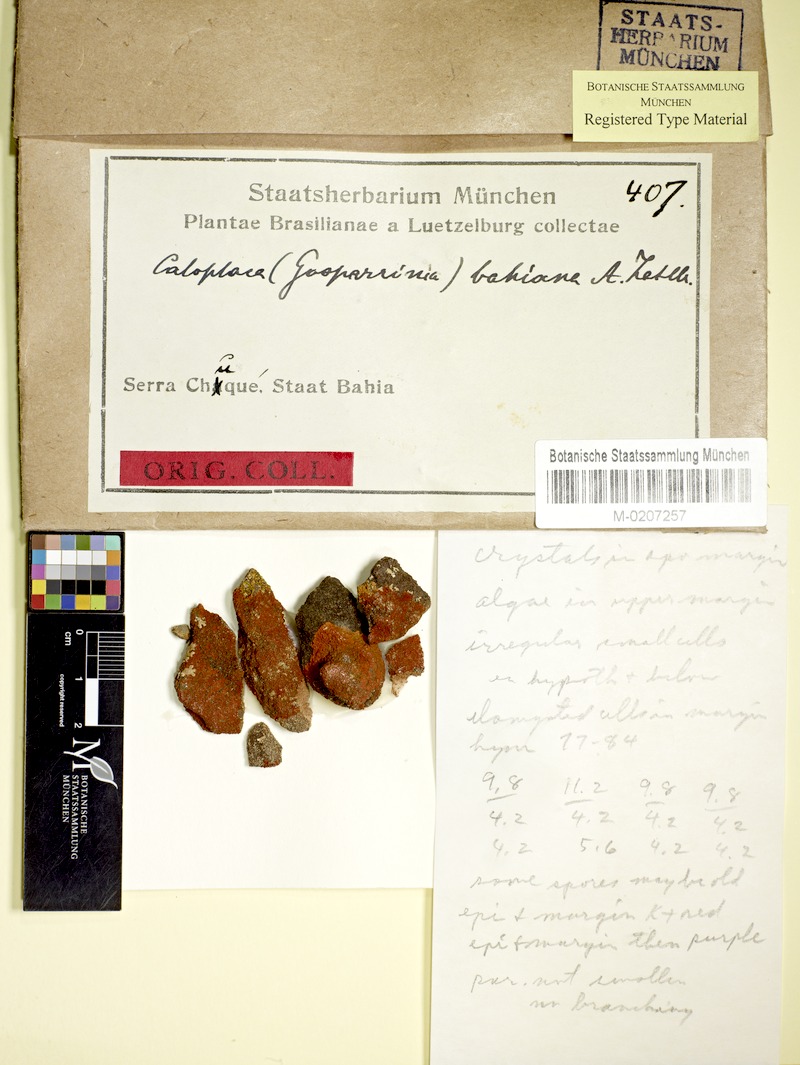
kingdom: Fungi
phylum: Ascomycota
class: Lecanoromycetes
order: Teloschistales
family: Teloschistaceae
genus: Caloplaca
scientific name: Caloplaca
